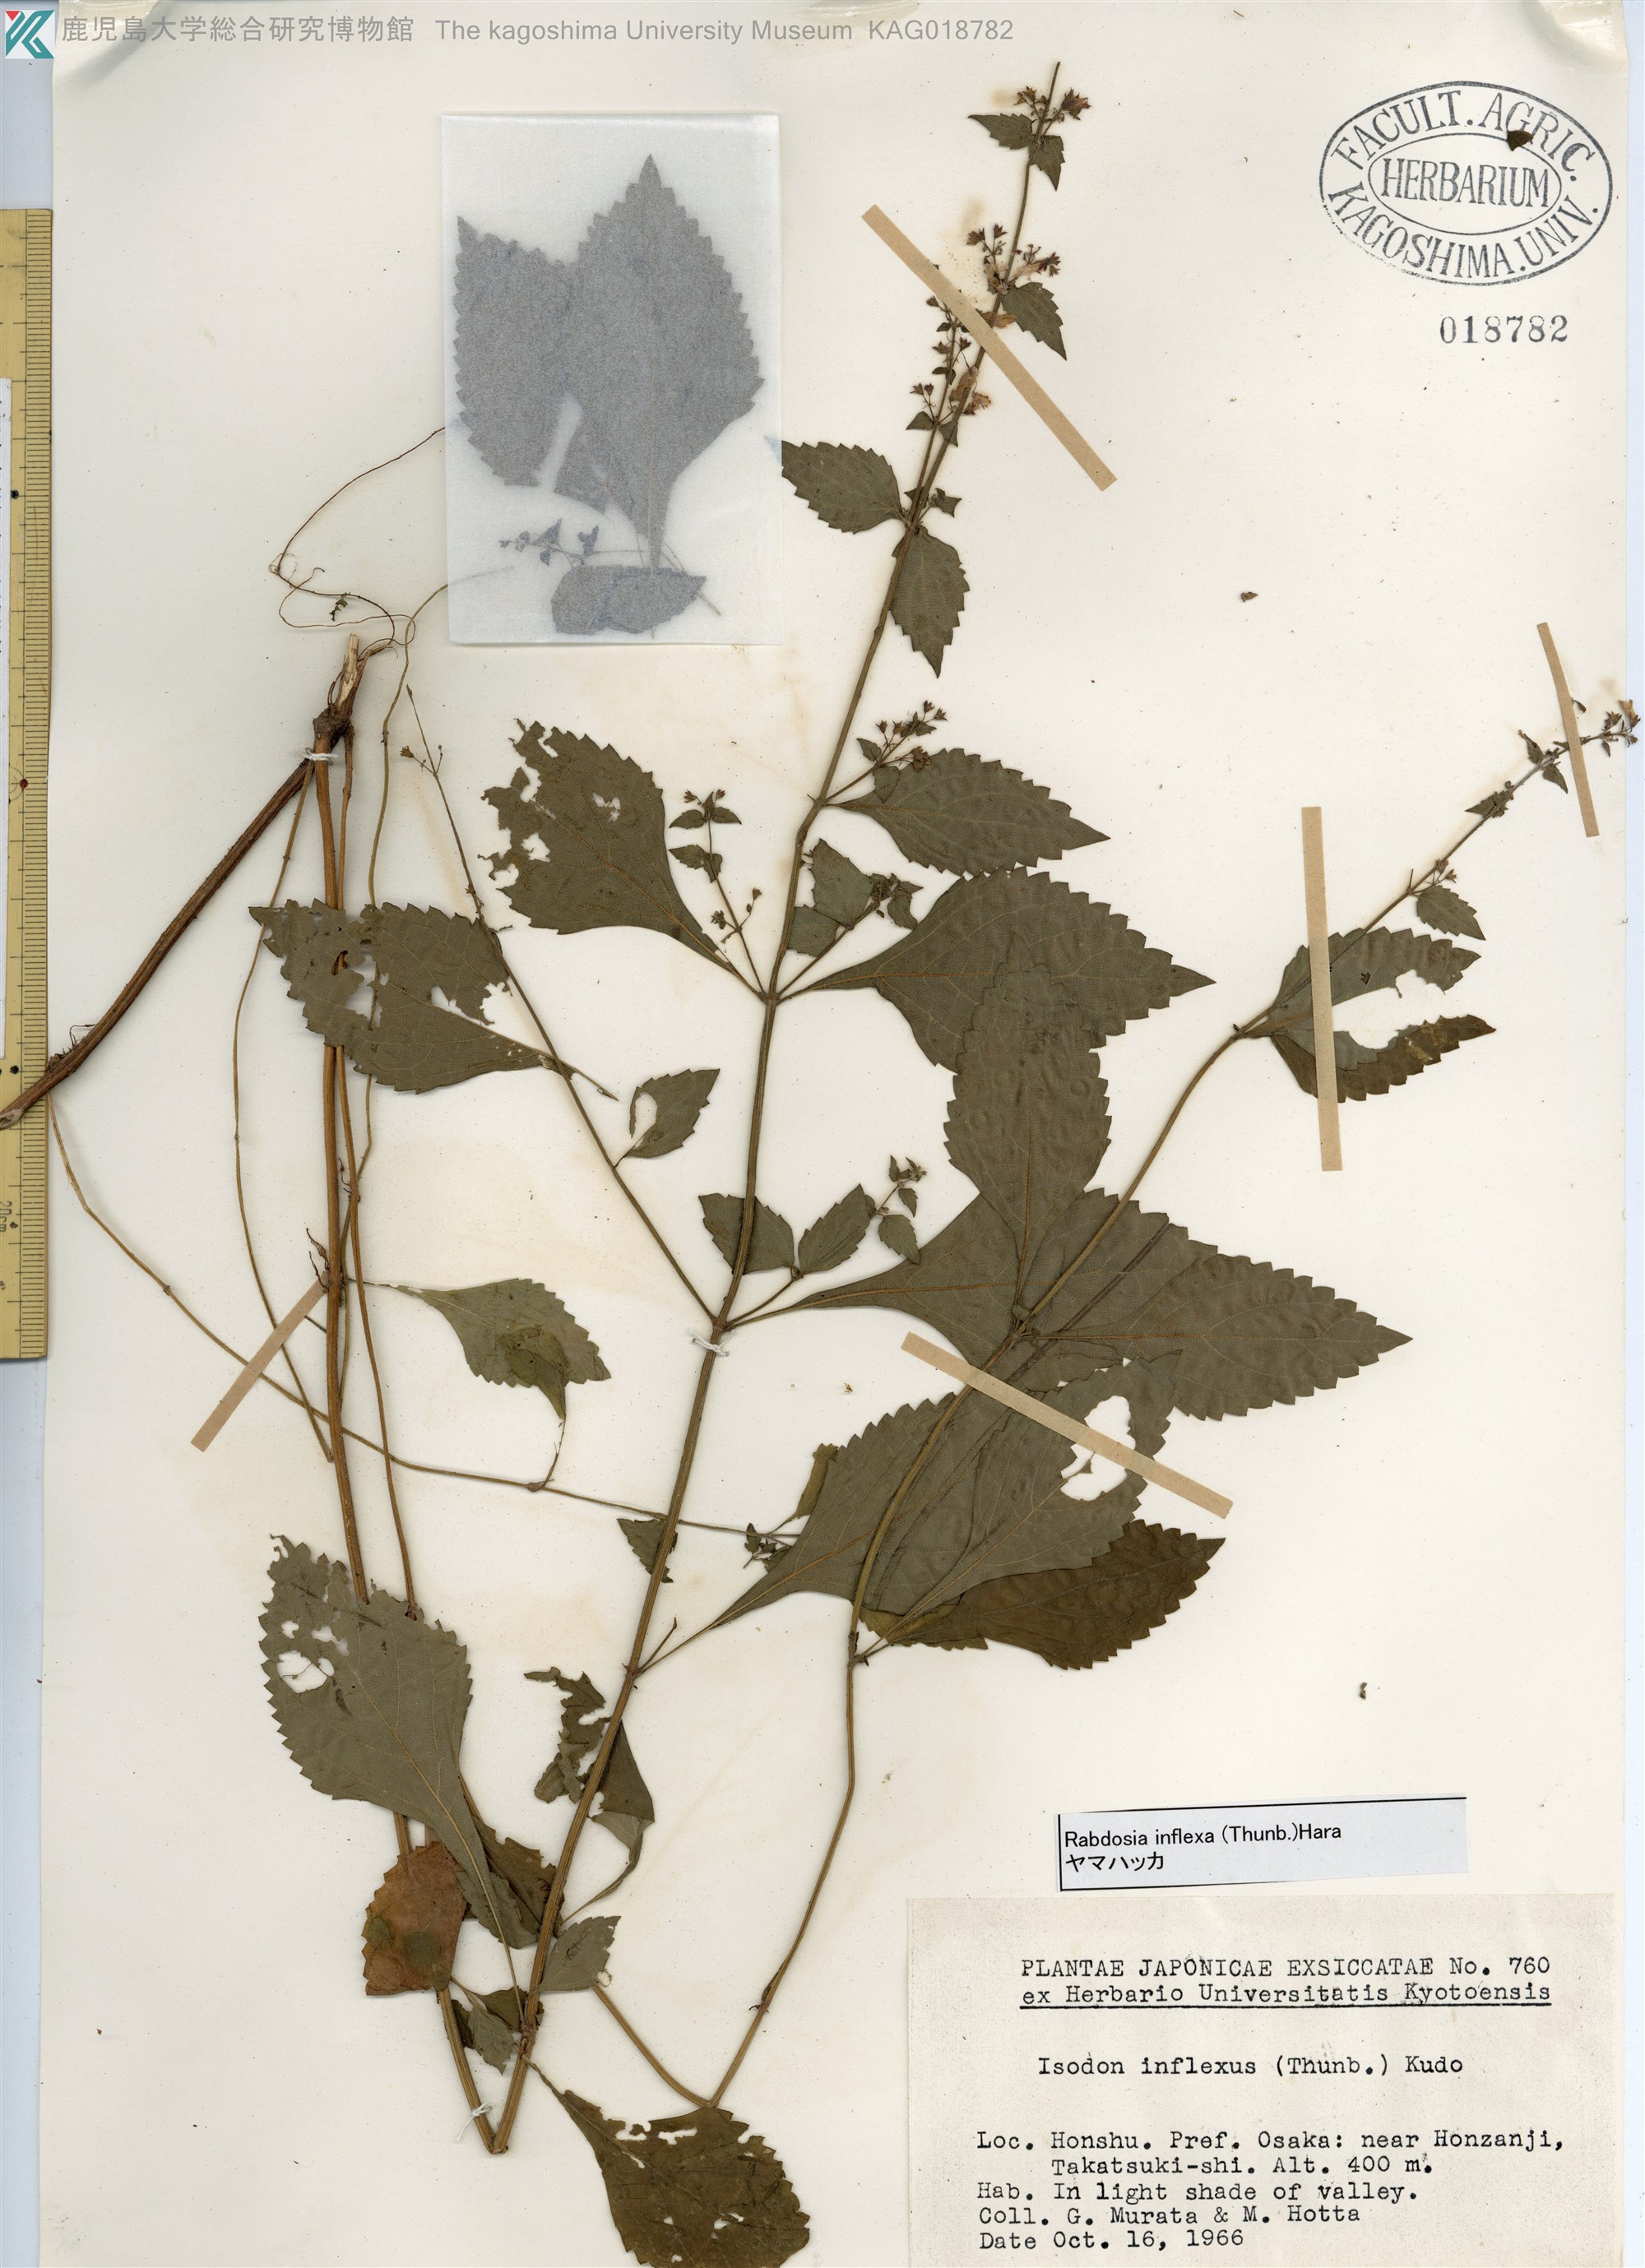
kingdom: Plantae
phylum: Tracheophyta
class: Magnoliopsida
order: Lamiales
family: Lamiaceae
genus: Isodon
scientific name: Isodon inflexus
